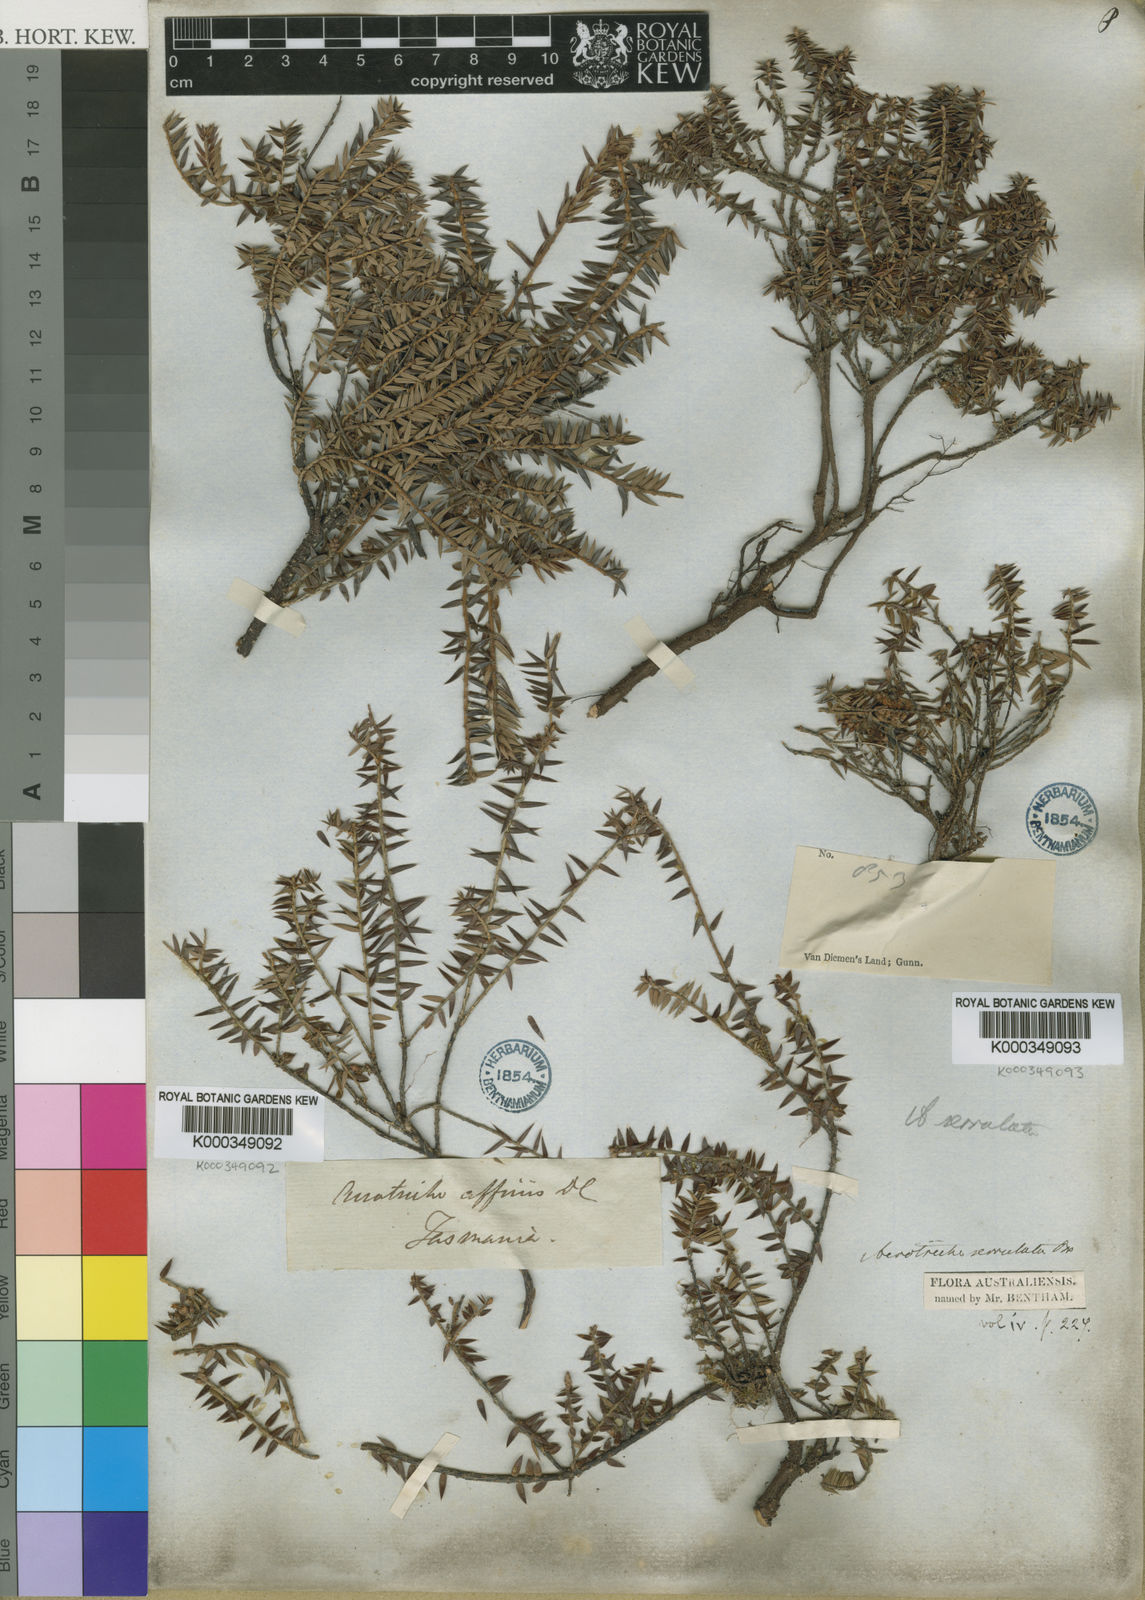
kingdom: Plantae
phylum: Tracheophyta
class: Magnoliopsida
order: Ericales
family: Ericaceae
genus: Acrotriche
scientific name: Acrotriche serrulata
